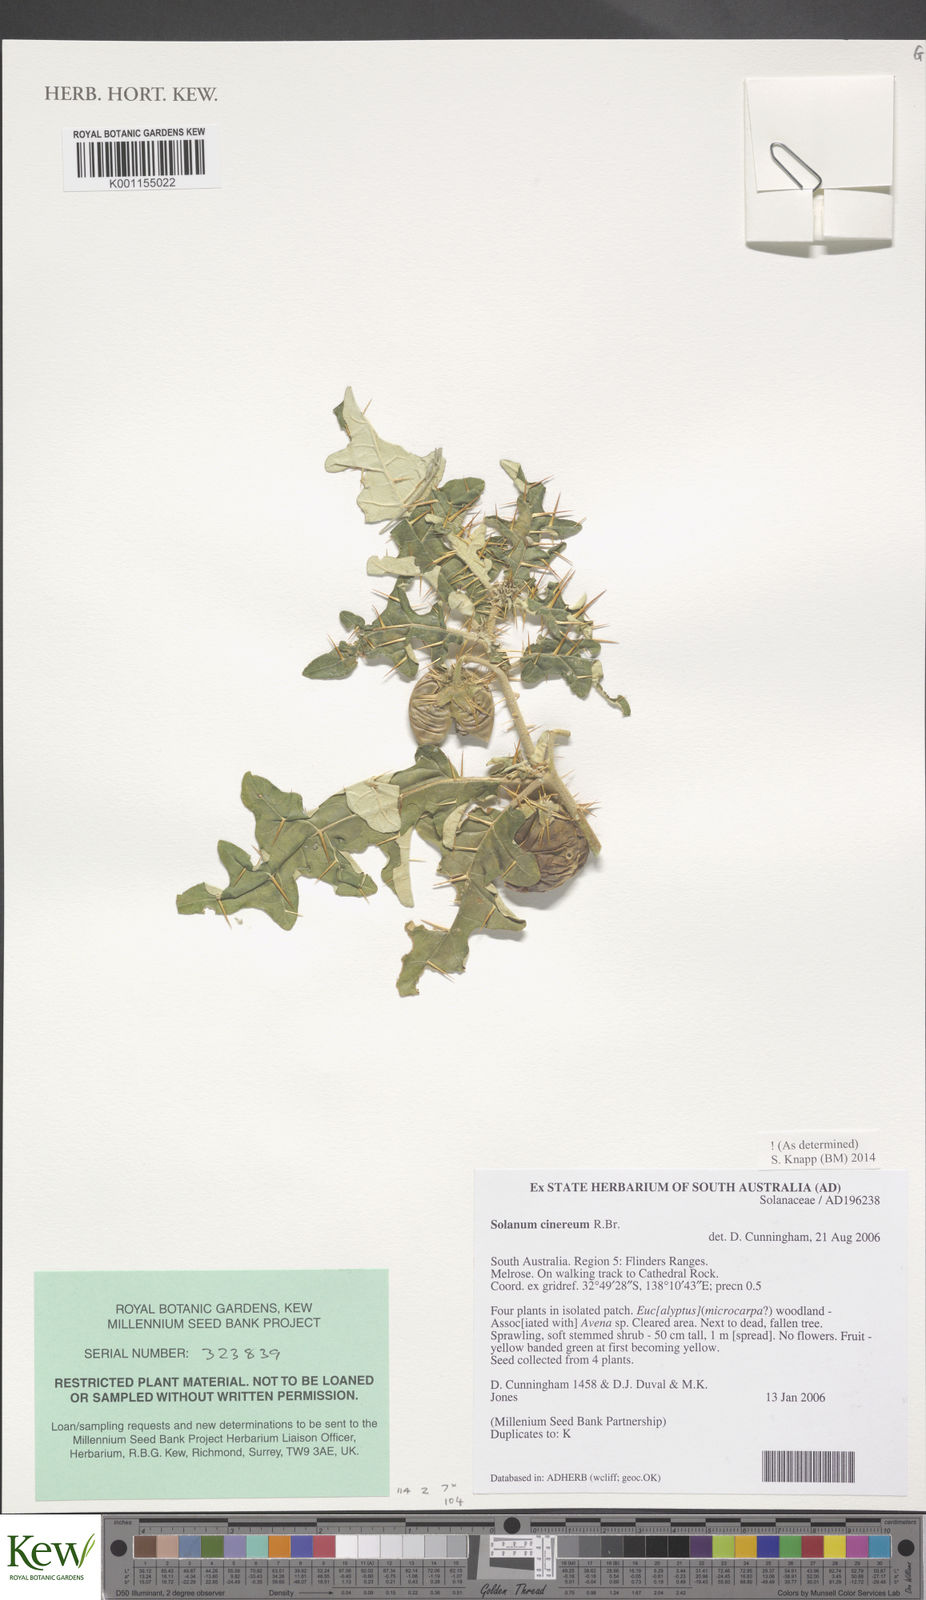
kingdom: Plantae
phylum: Tracheophyta
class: Magnoliopsida
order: Solanales
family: Solanaceae
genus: Solanum
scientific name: Solanum cinereum
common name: Narrawa-bur
